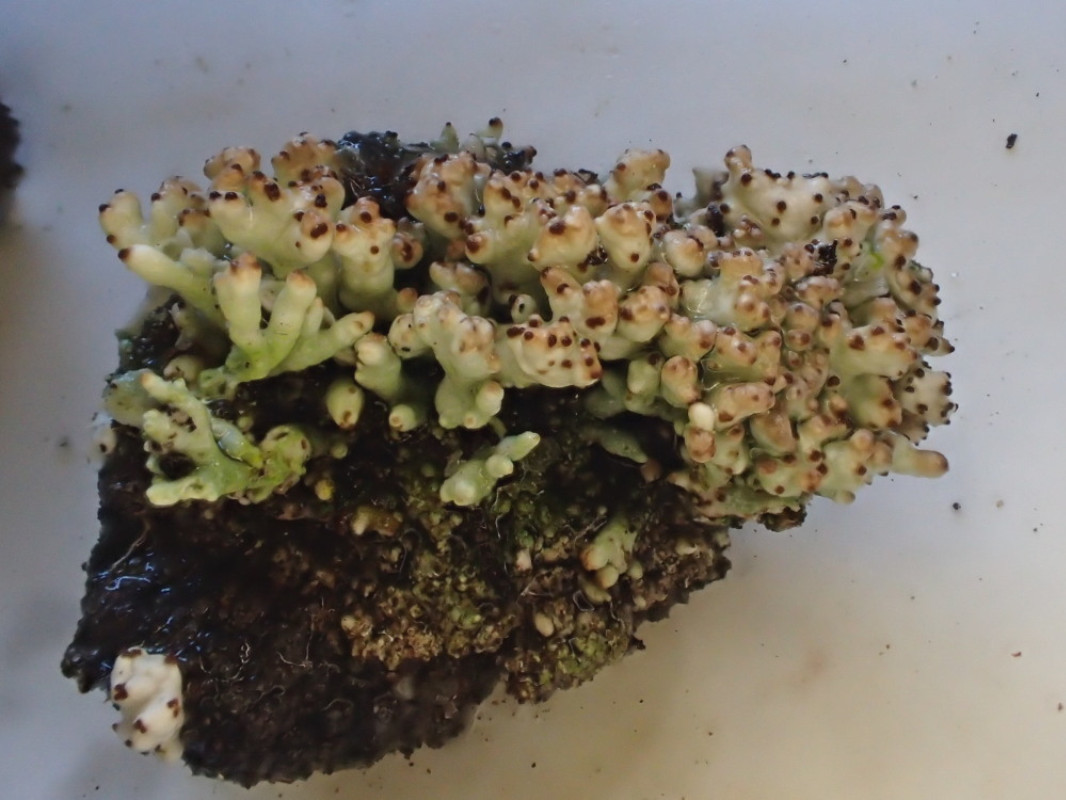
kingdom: Fungi
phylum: Ascomycota
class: Lecanoromycetes
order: Lecanorales
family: Cladoniaceae
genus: Pycnothelia
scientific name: Pycnothelia papillaria
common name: blødvortet knoplav
